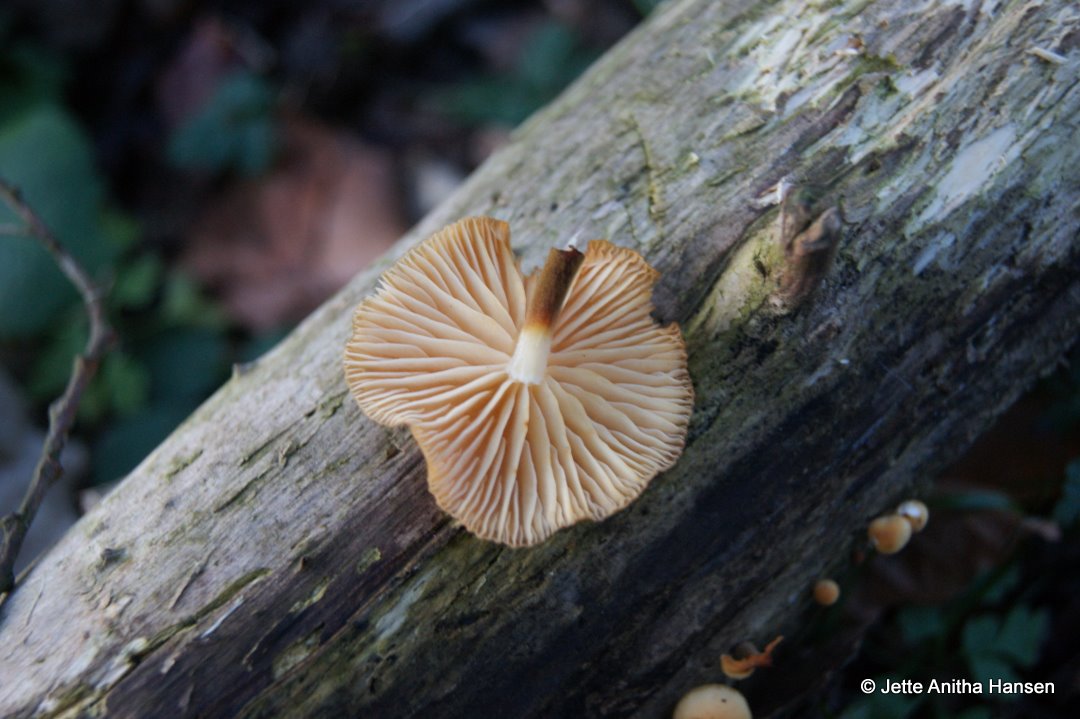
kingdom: Fungi
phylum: Basidiomycota
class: Agaricomycetes
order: Agaricales
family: Physalacriaceae
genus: Flammulina
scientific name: Flammulina elastica
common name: pile-fløjlsfod
